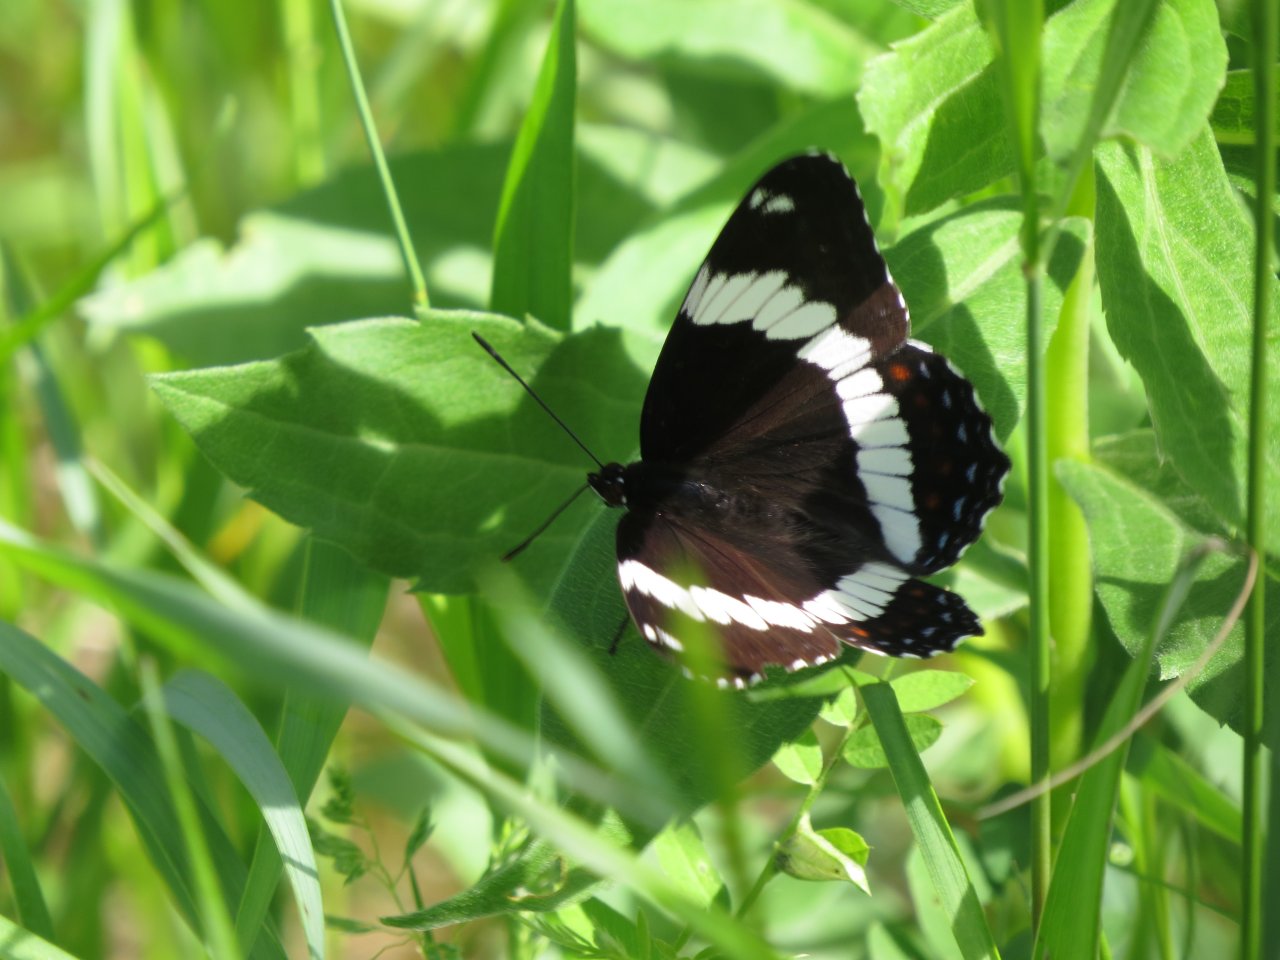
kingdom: Animalia
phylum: Arthropoda
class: Insecta
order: Lepidoptera
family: Nymphalidae
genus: Limenitis
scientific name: Limenitis arthemis
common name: Red-spotted Admiral
